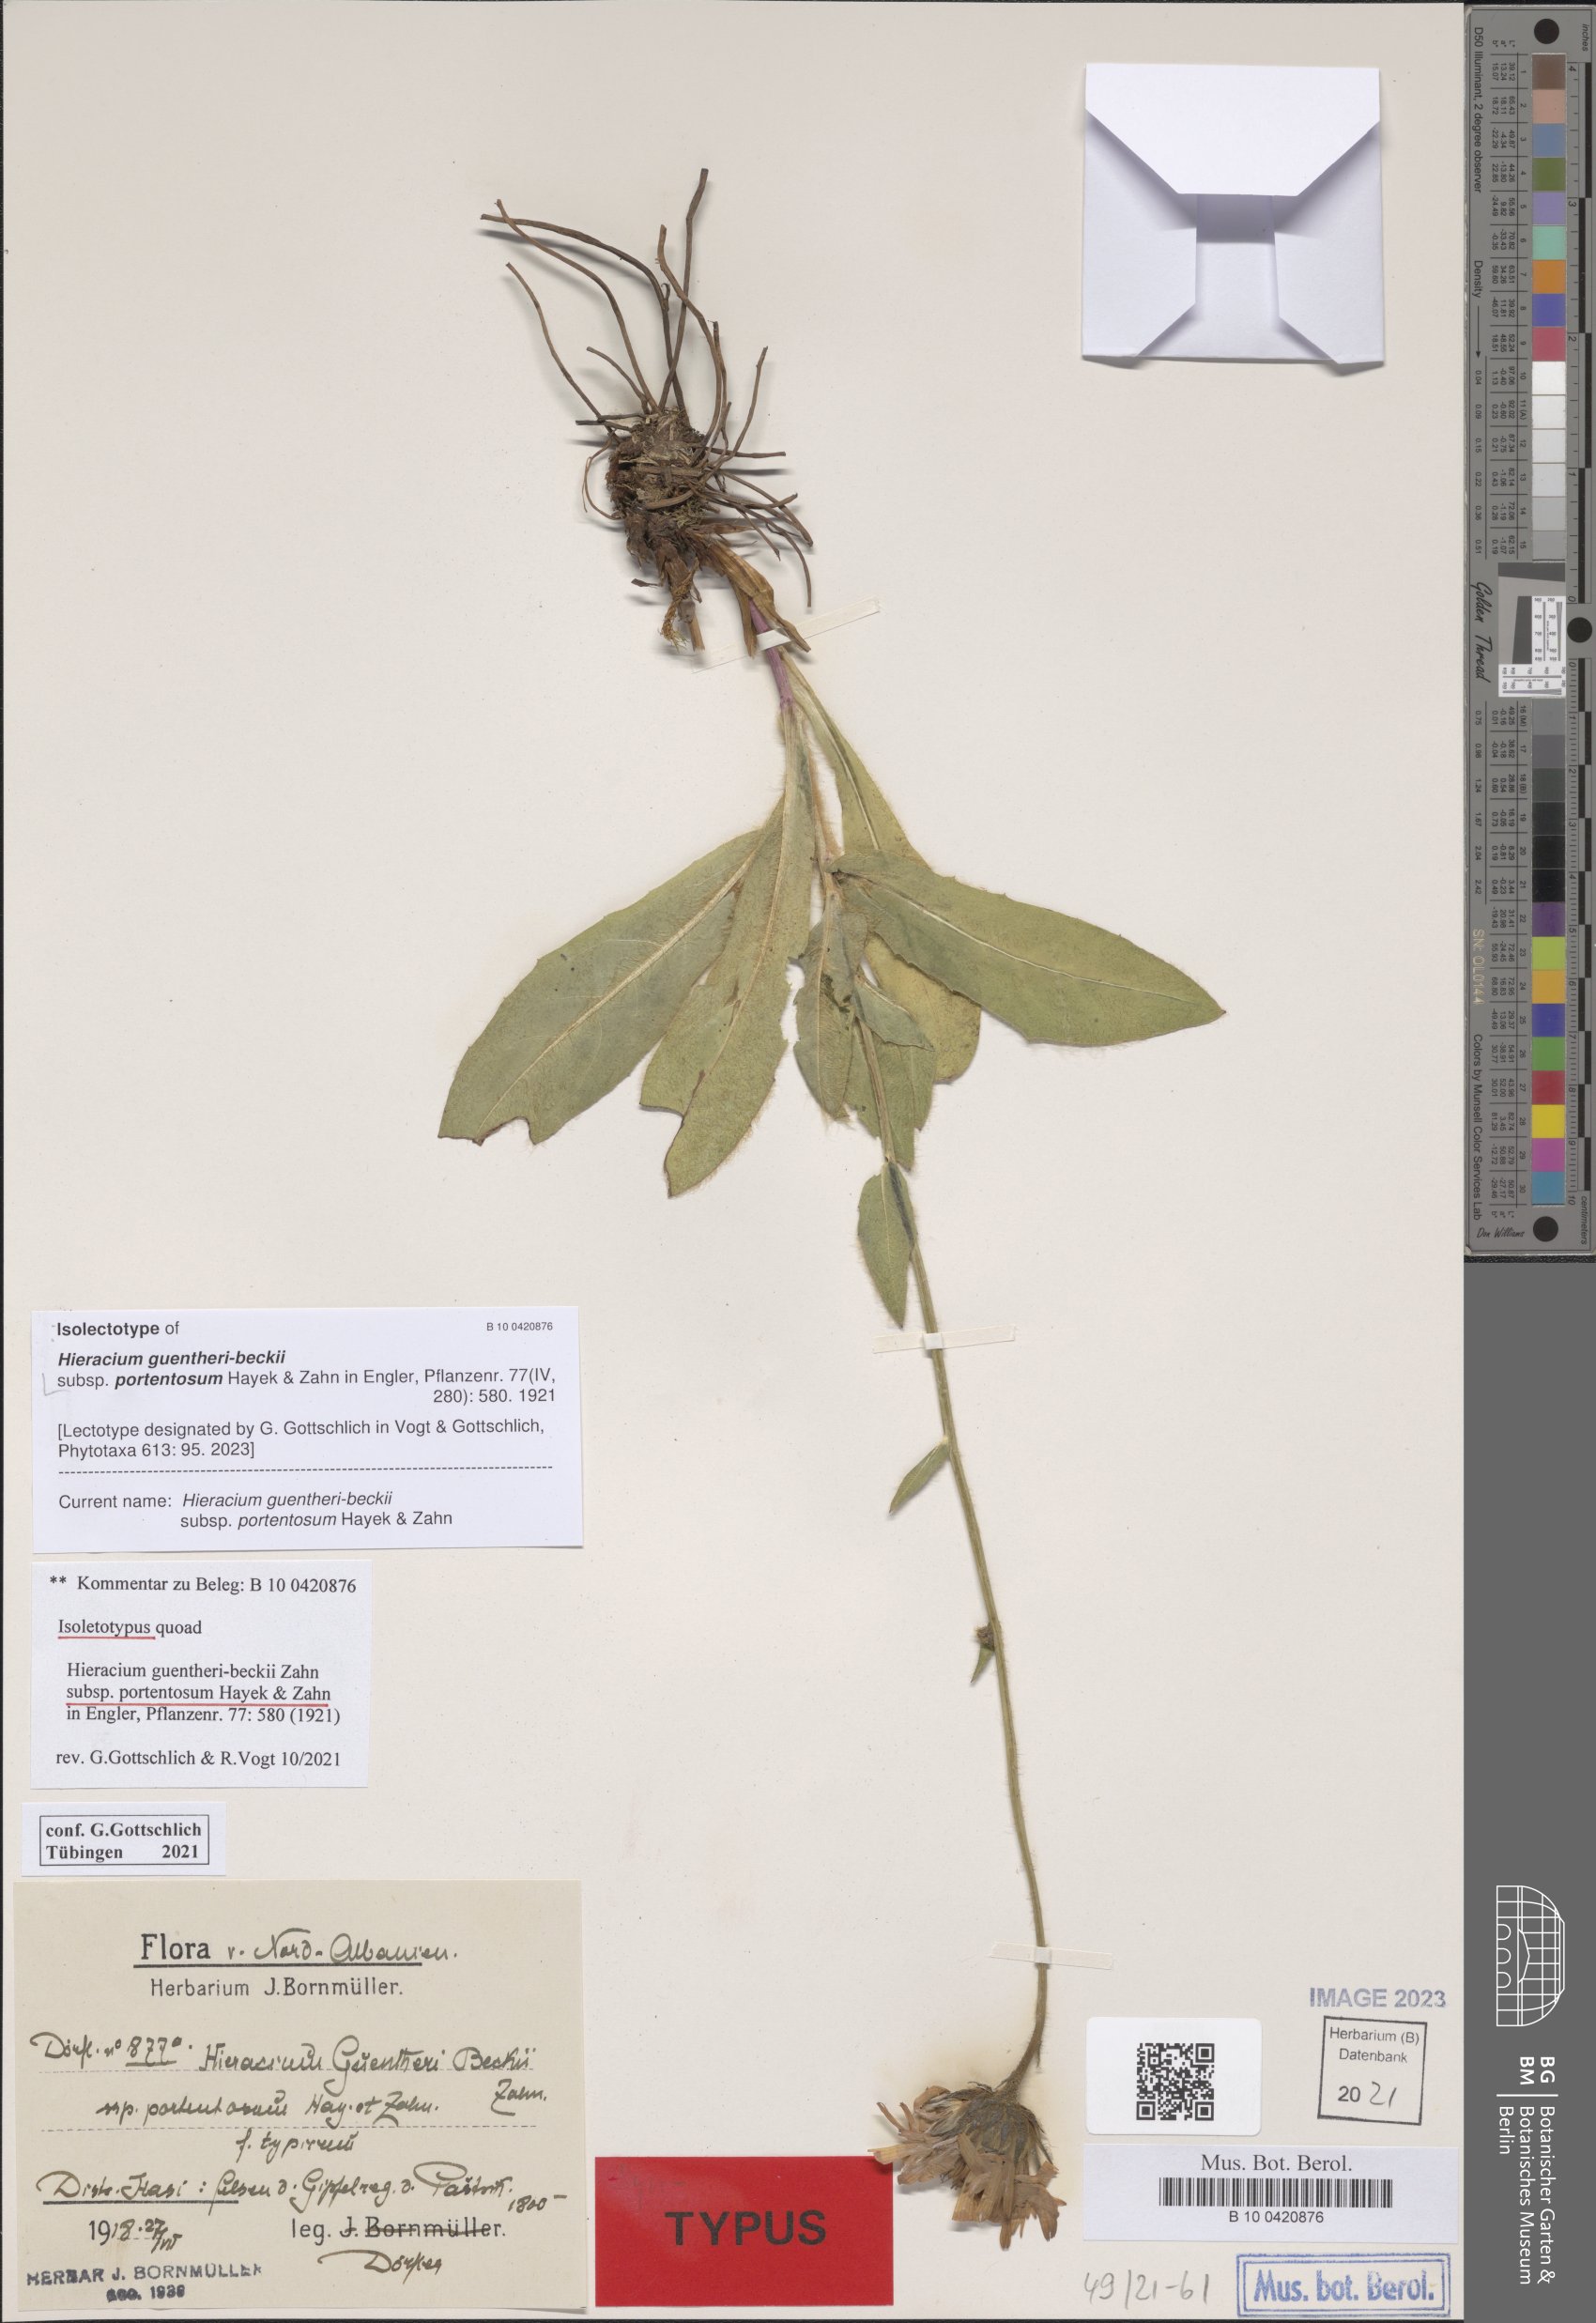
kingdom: Plantae
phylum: Tracheophyta
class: Magnoliopsida
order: Asterales
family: Asteraceae
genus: Hieracium
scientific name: Hieracium stirovacense
